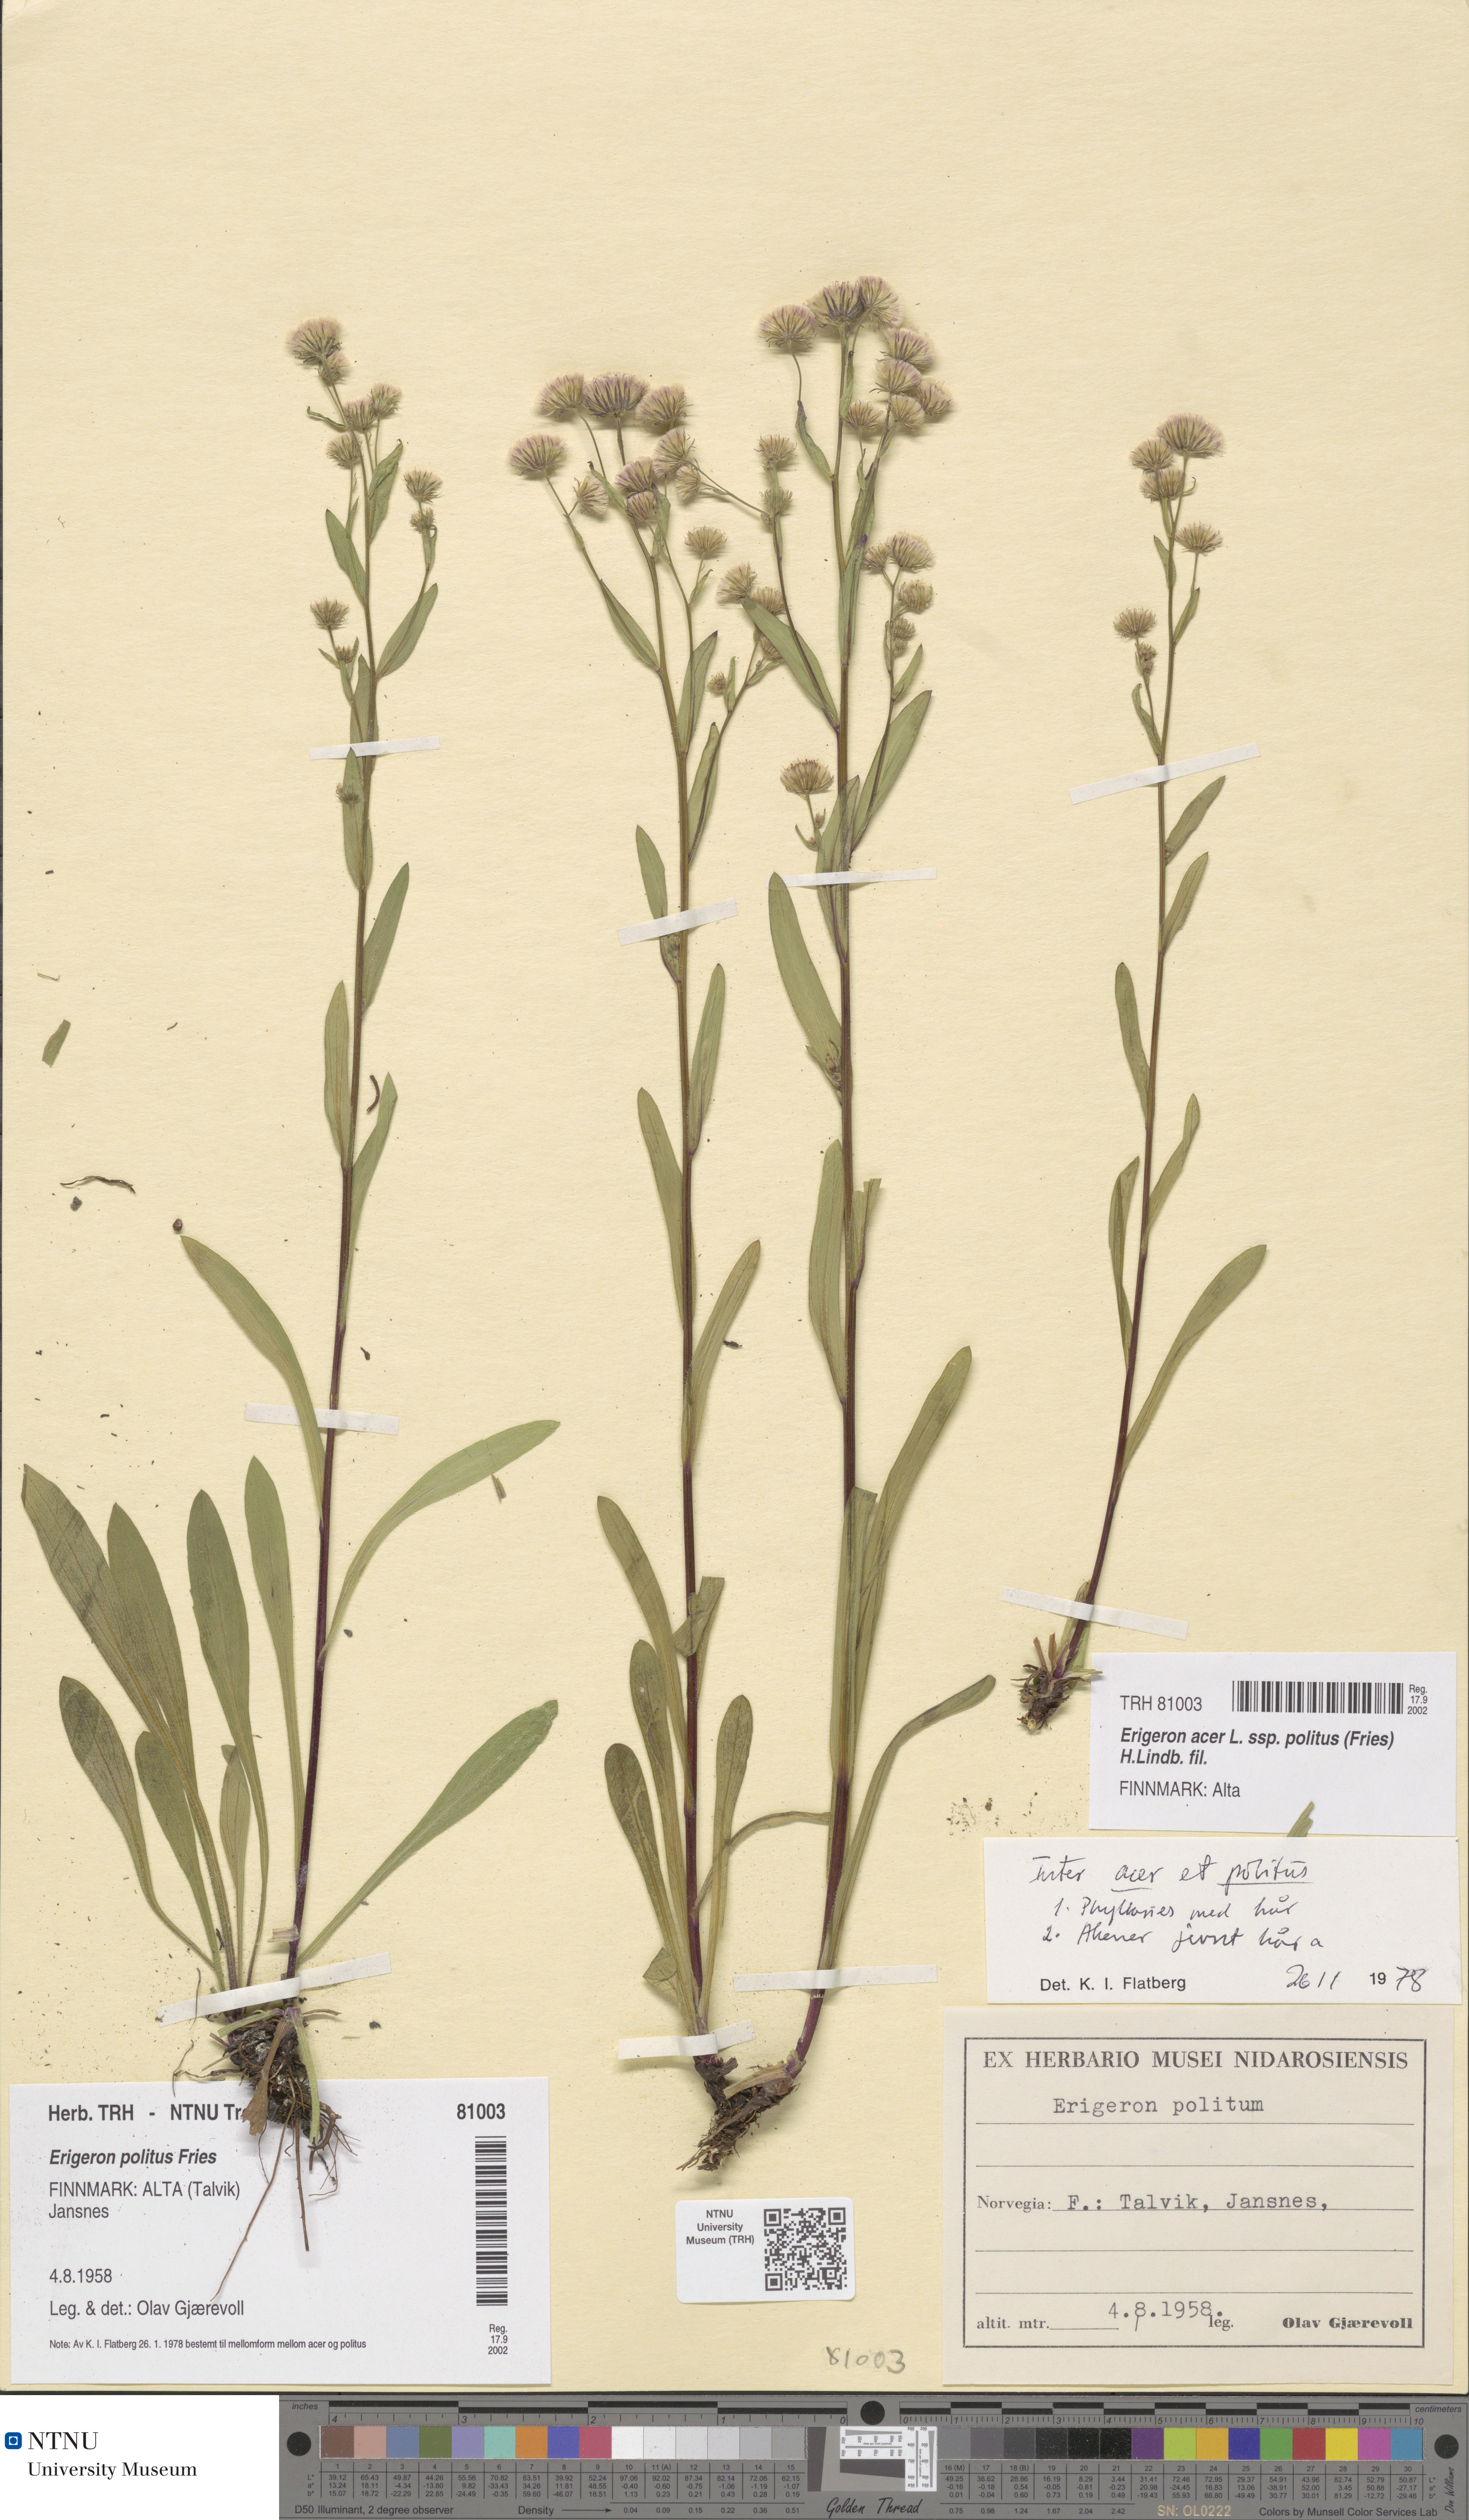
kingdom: Plantae
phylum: Tracheophyta
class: Magnoliopsida
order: Asterales
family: Asteraceae
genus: Erigeron
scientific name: Erigeron politus
